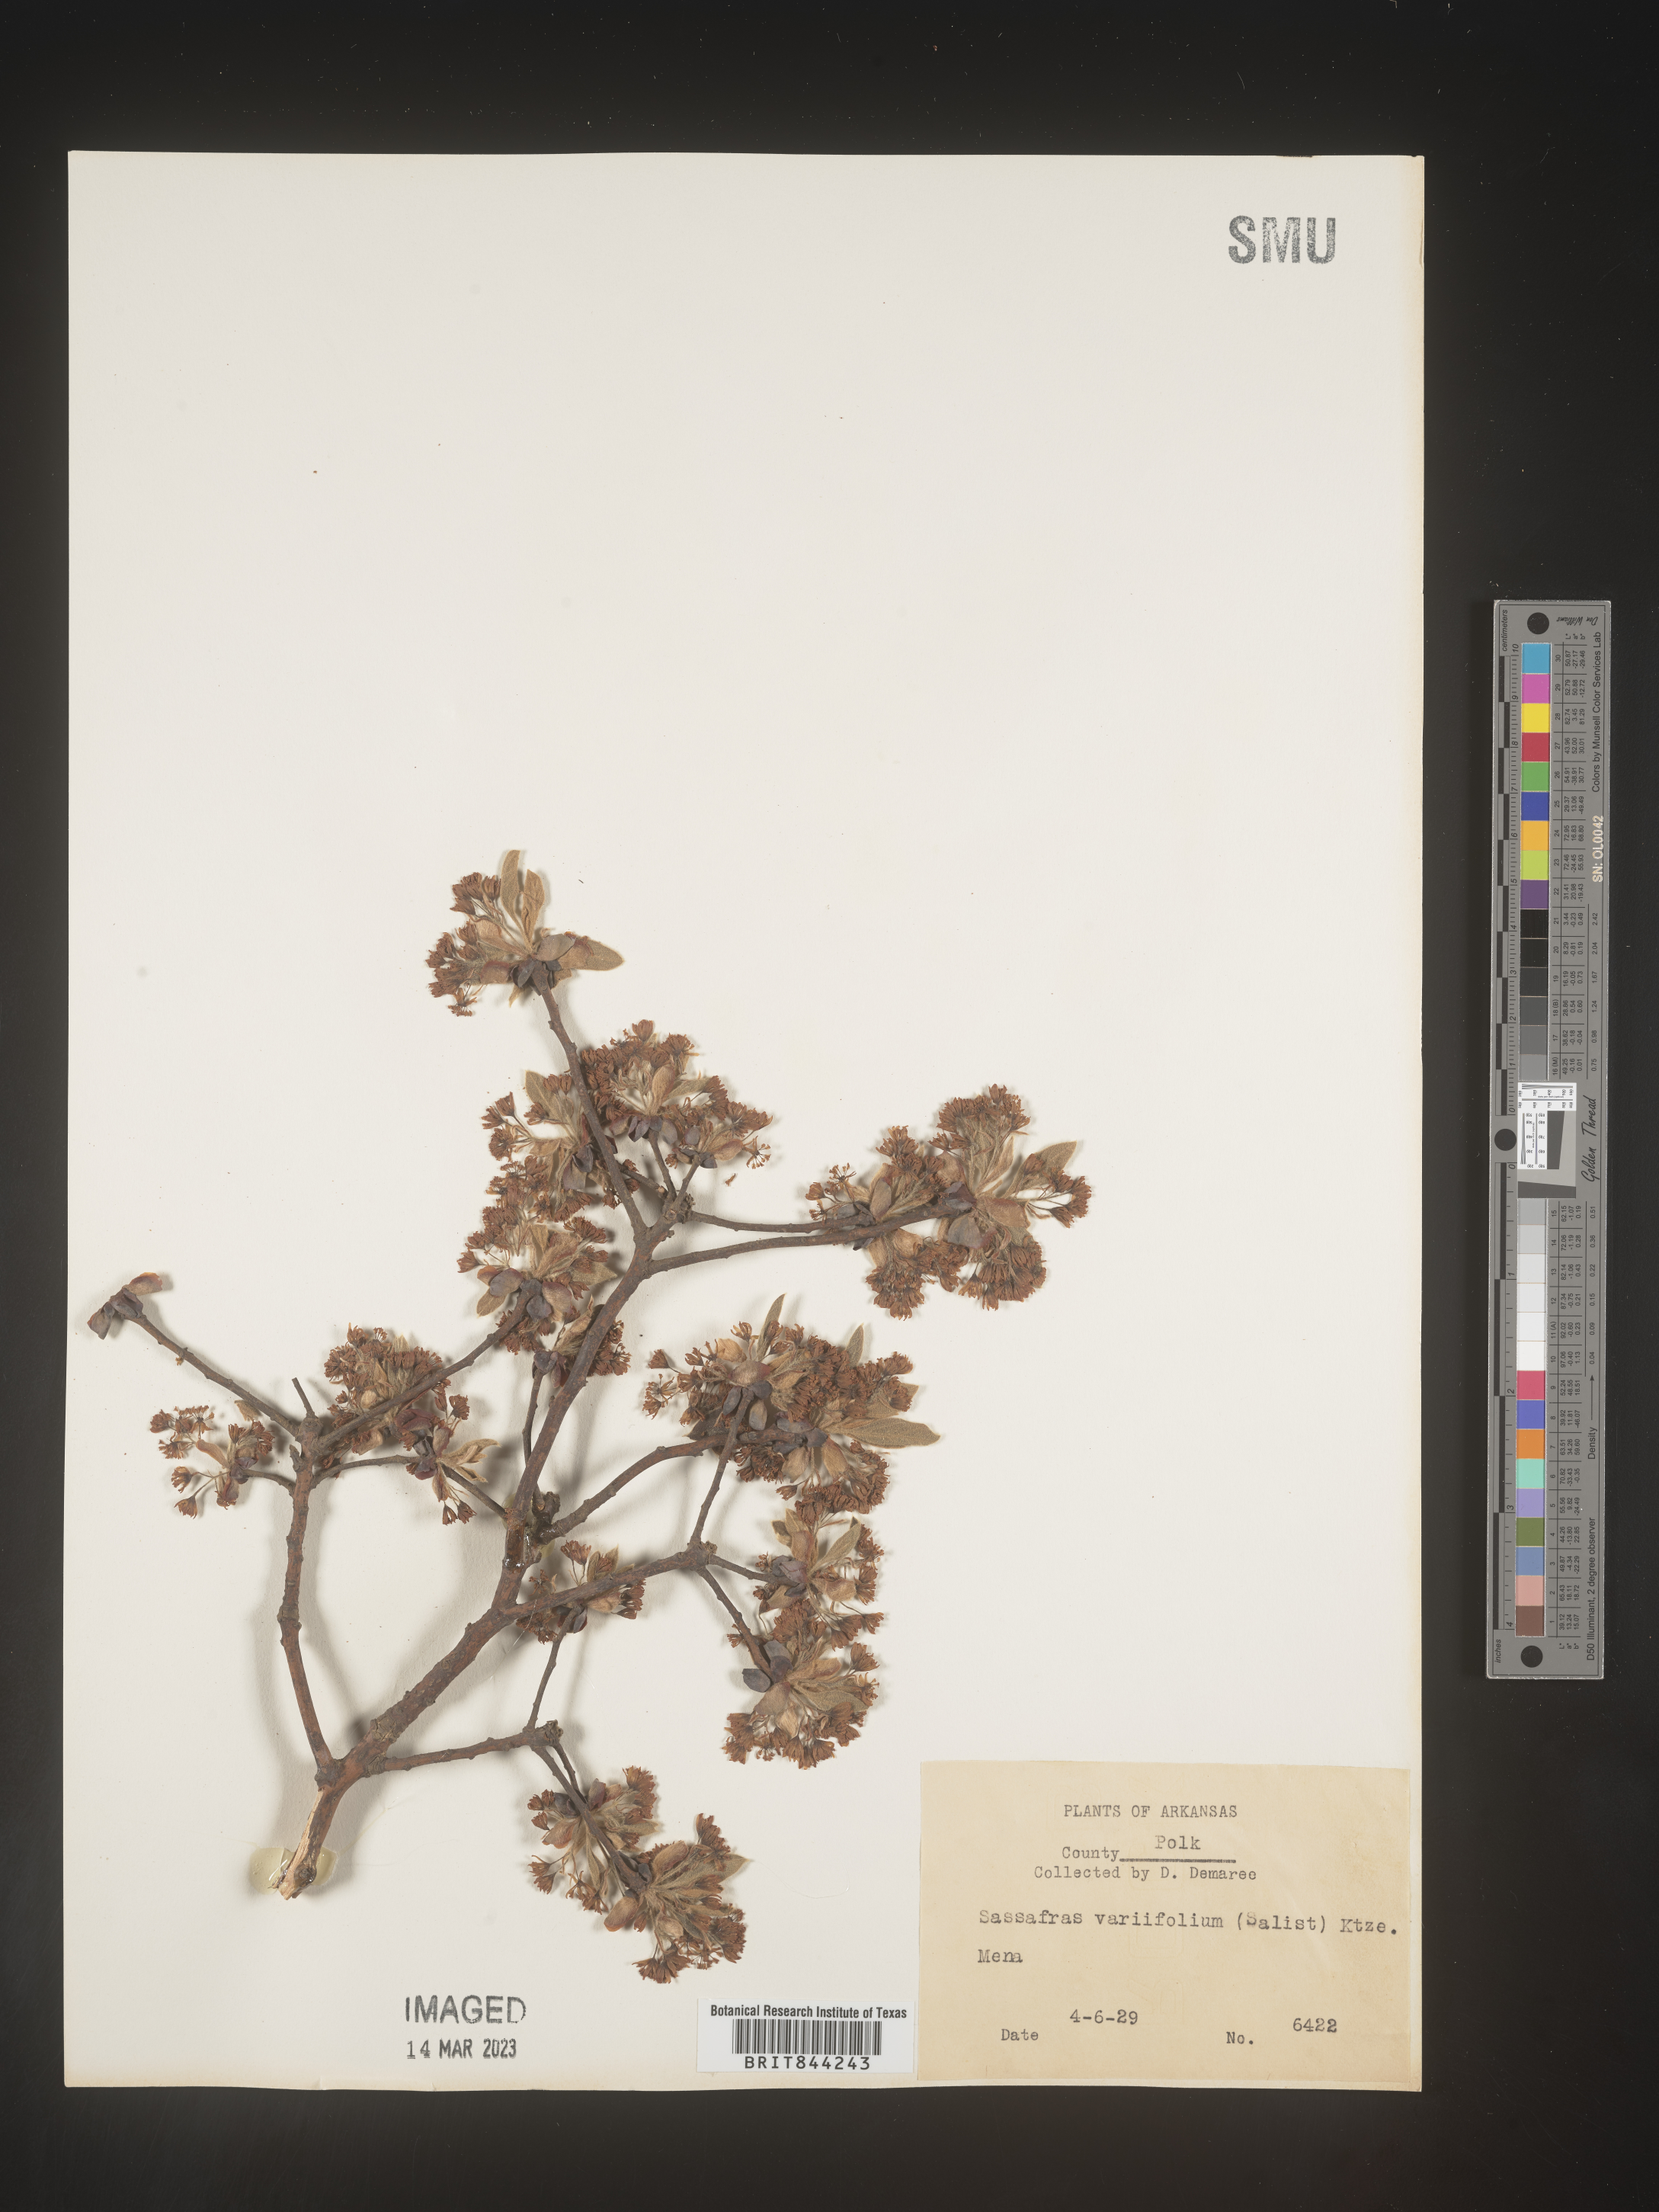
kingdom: Plantae
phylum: Tracheophyta
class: Magnoliopsida
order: Laurales
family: Lauraceae
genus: Sassafras
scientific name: Sassafras albidum
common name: Sassafras
